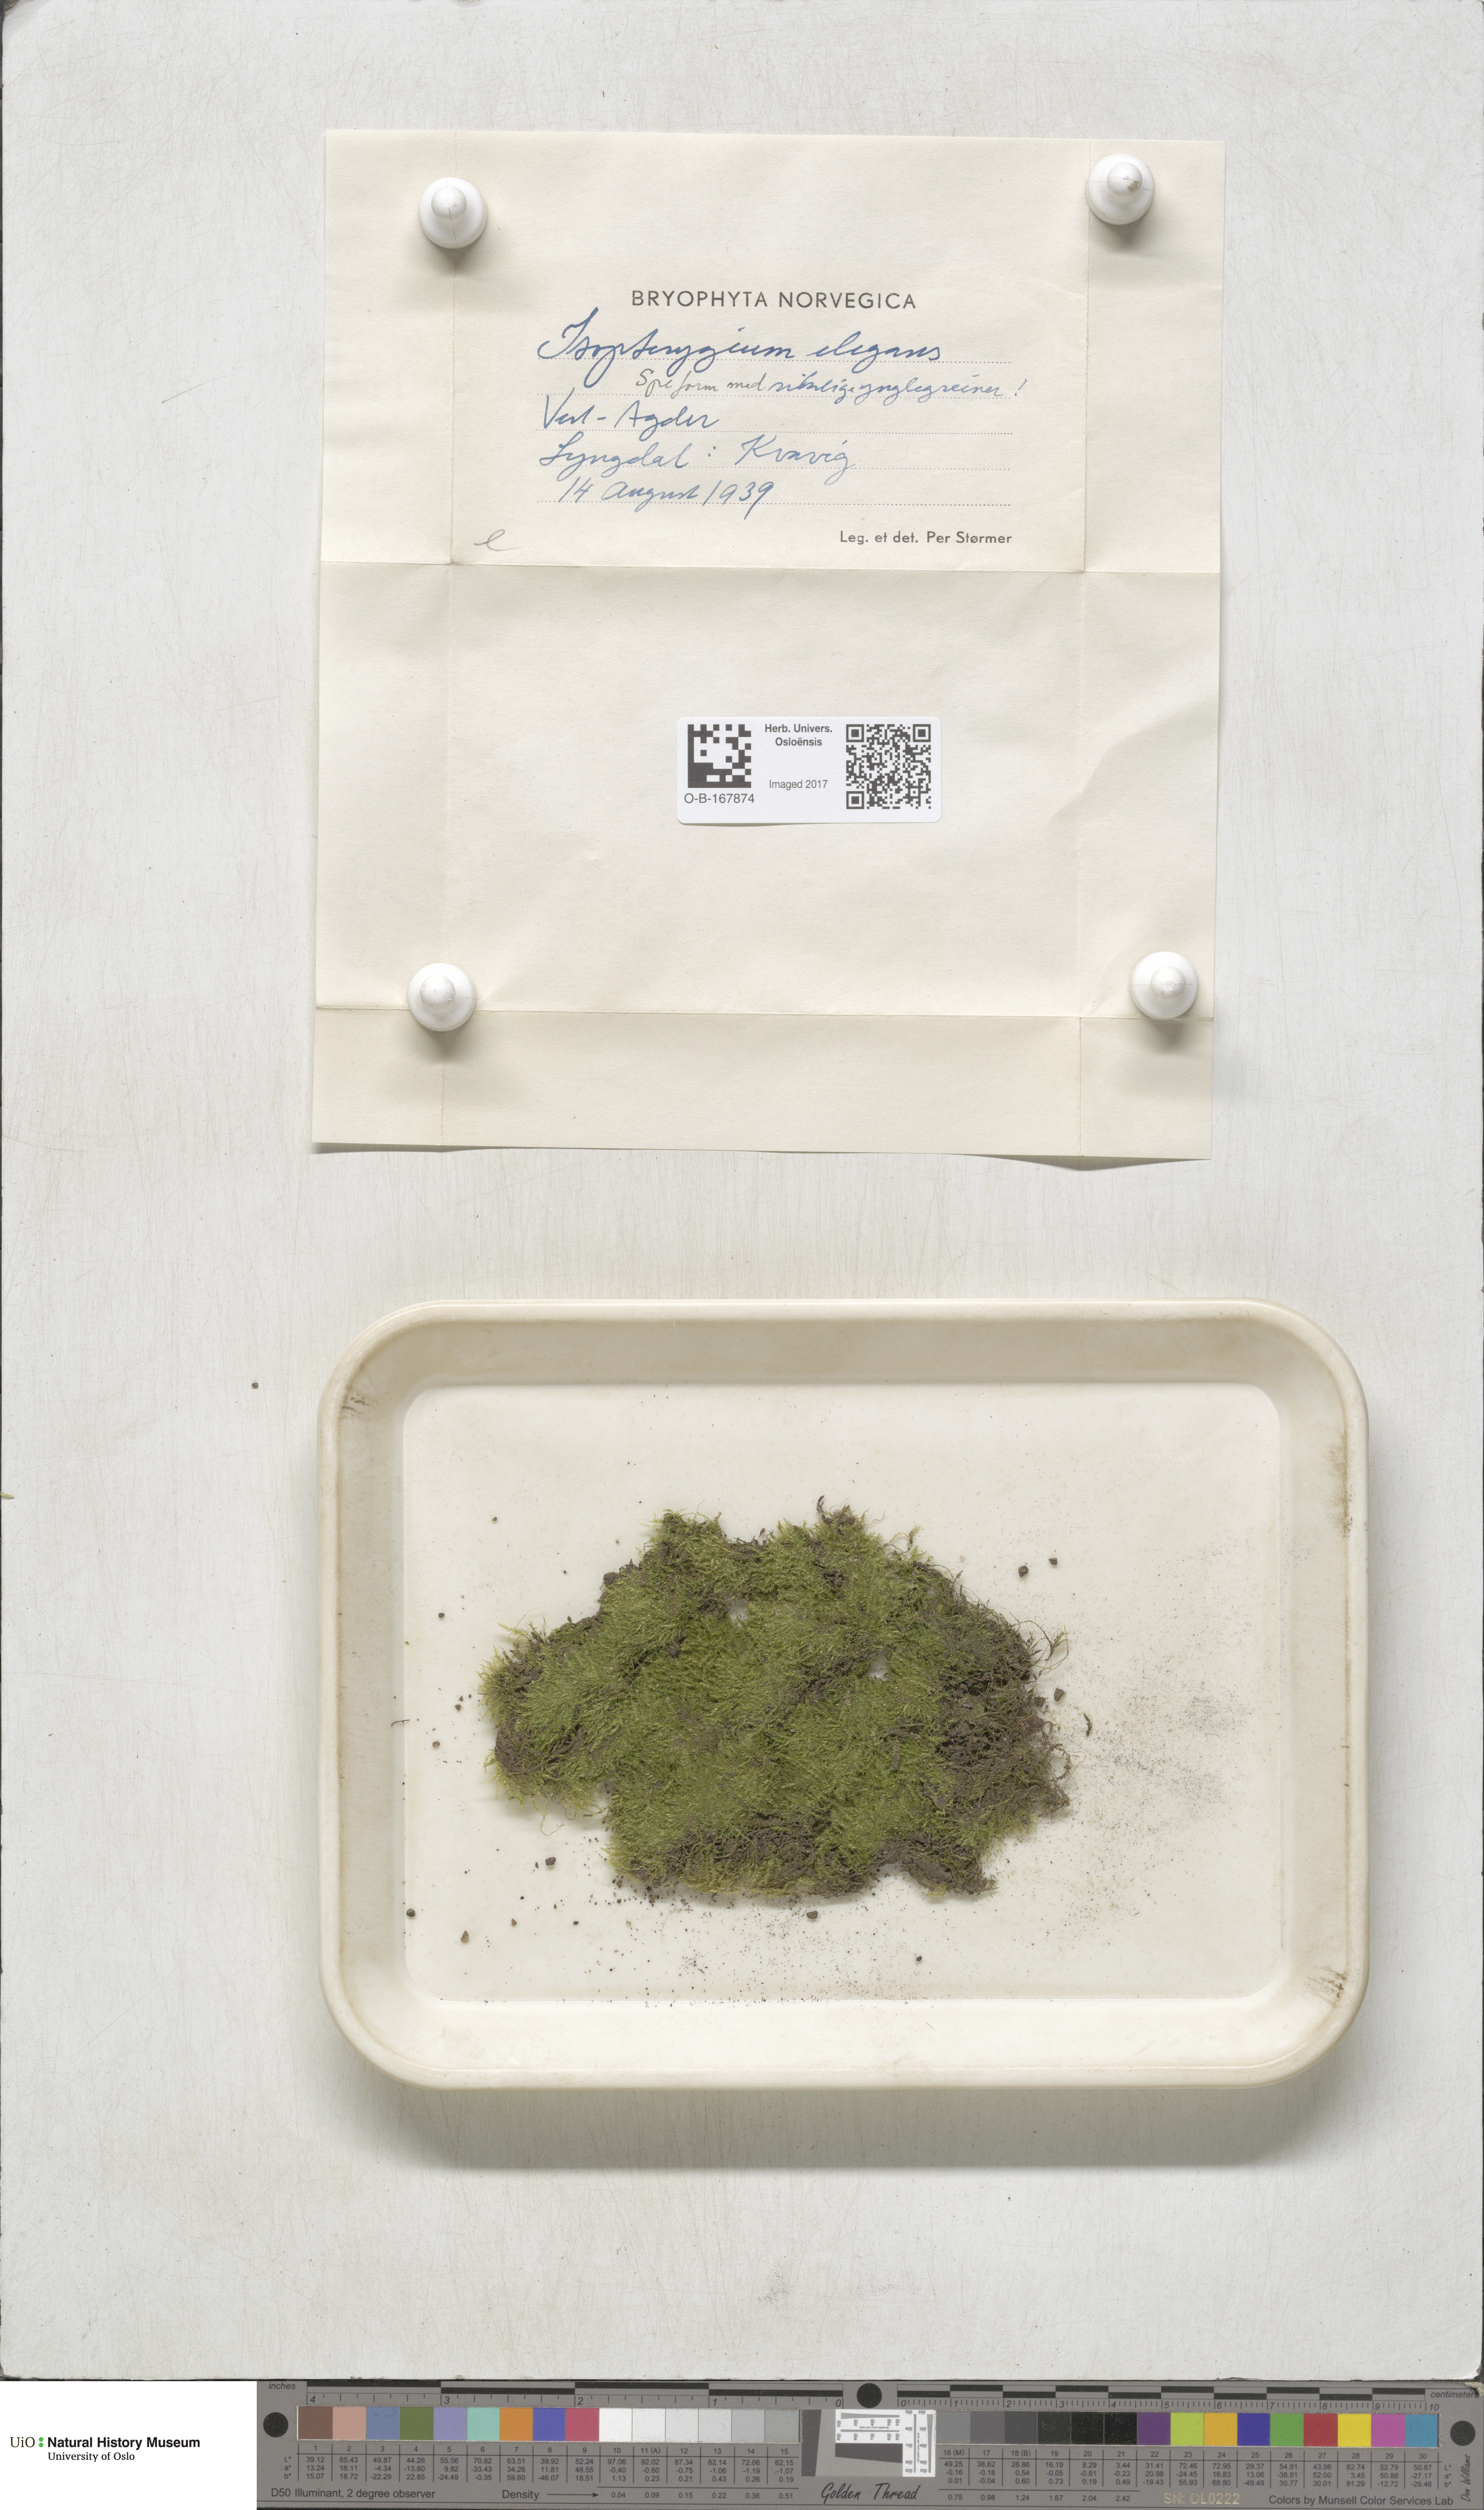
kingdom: Plantae
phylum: Bryophyta
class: Bryopsida
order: Hypnales
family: Plagiotheciaceae
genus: Pseudotaxiphyllum
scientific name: Pseudotaxiphyllum elegans
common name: Elegant silk moss
